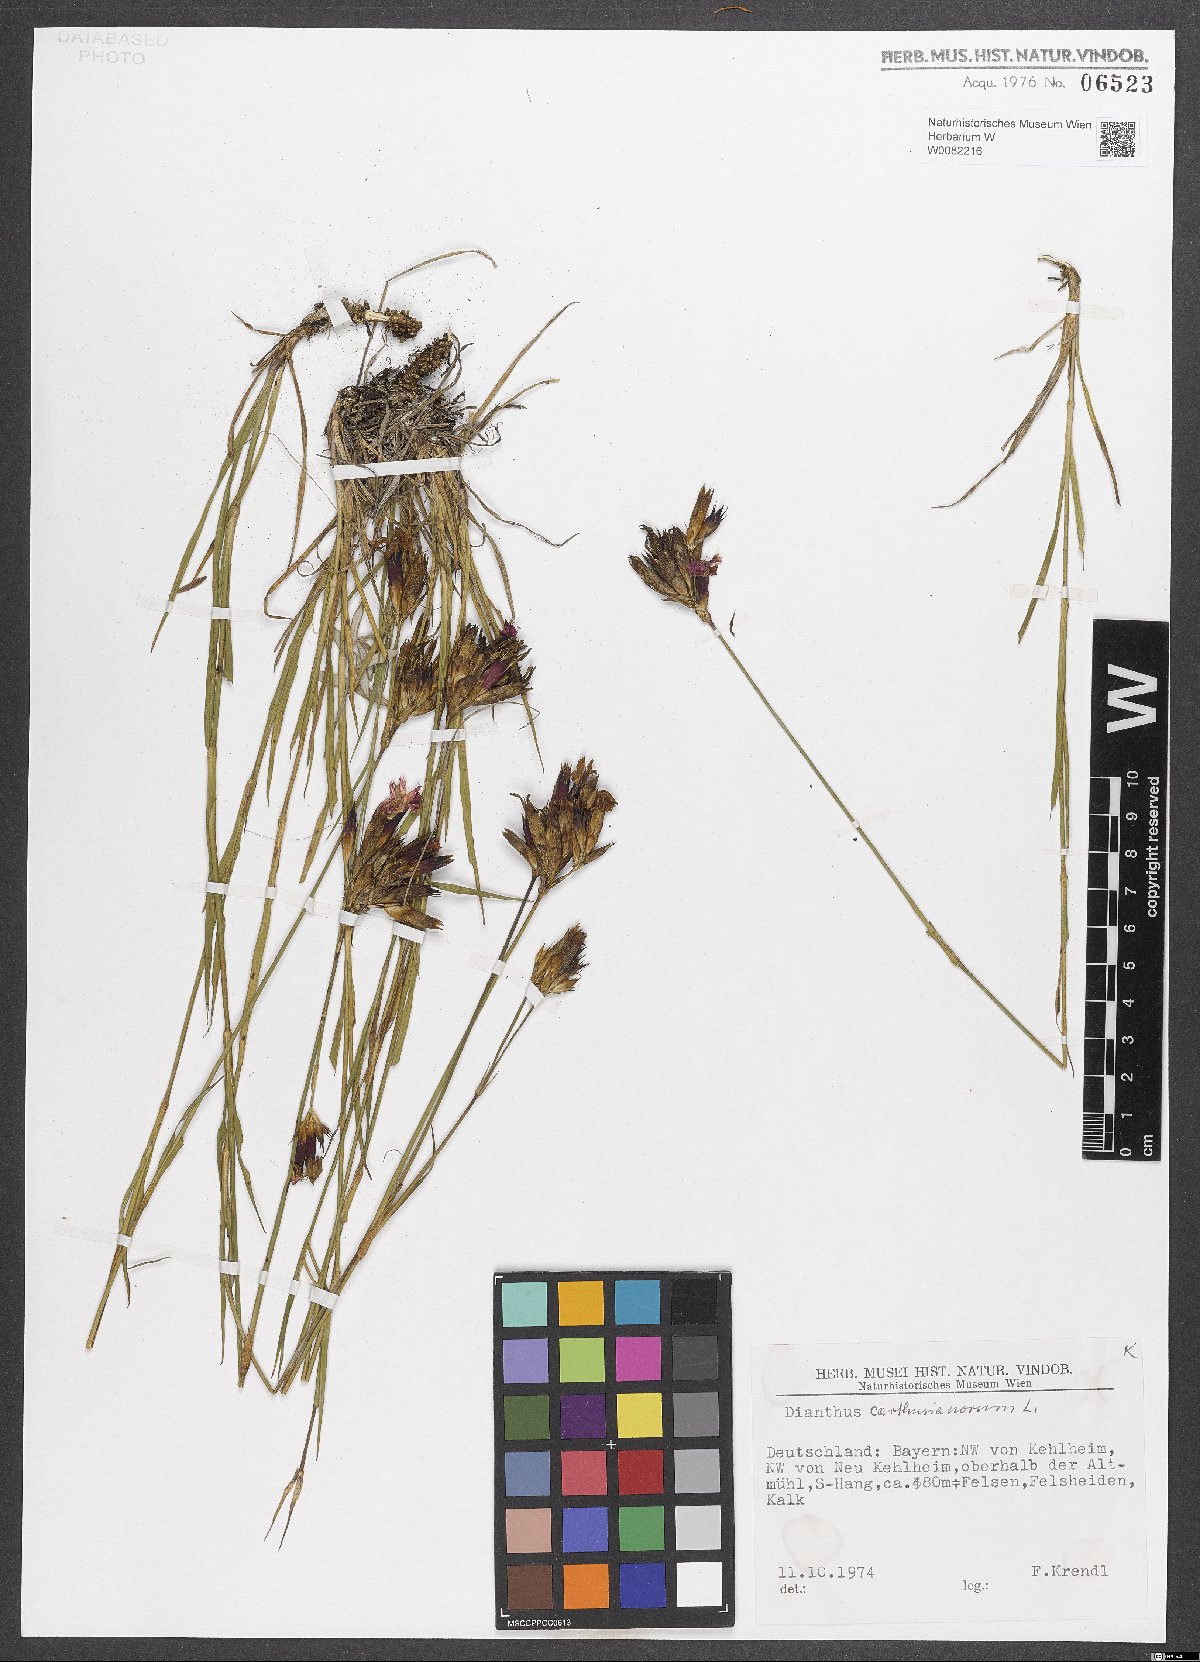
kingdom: Plantae
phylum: Tracheophyta
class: Magnoliopsida
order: Caryophyllales
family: Caryophyllaceae
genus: Dianthus
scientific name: Dianthus carthusianorum
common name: Carthusian pink
